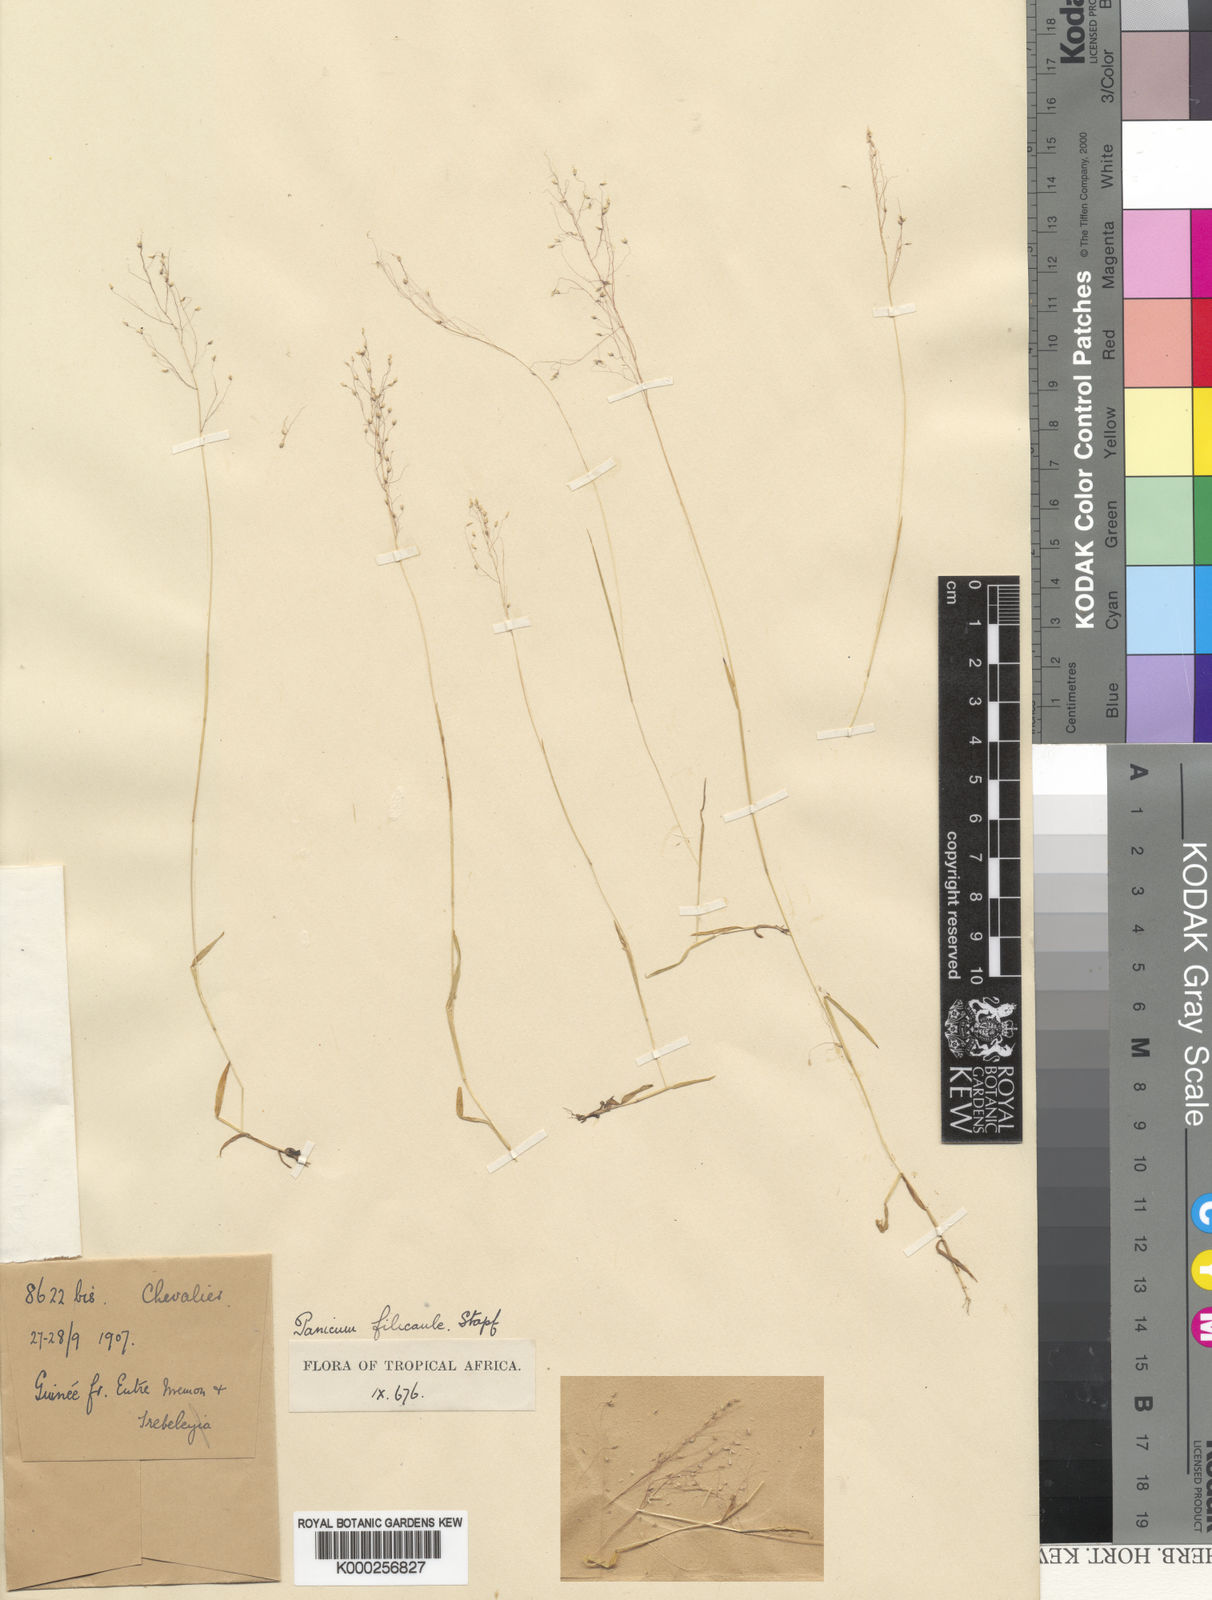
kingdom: Plantae
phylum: Tracheophyta
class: Liliopsida
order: Poales
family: Poaceae
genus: Panicum
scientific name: Panicum curviflorum
